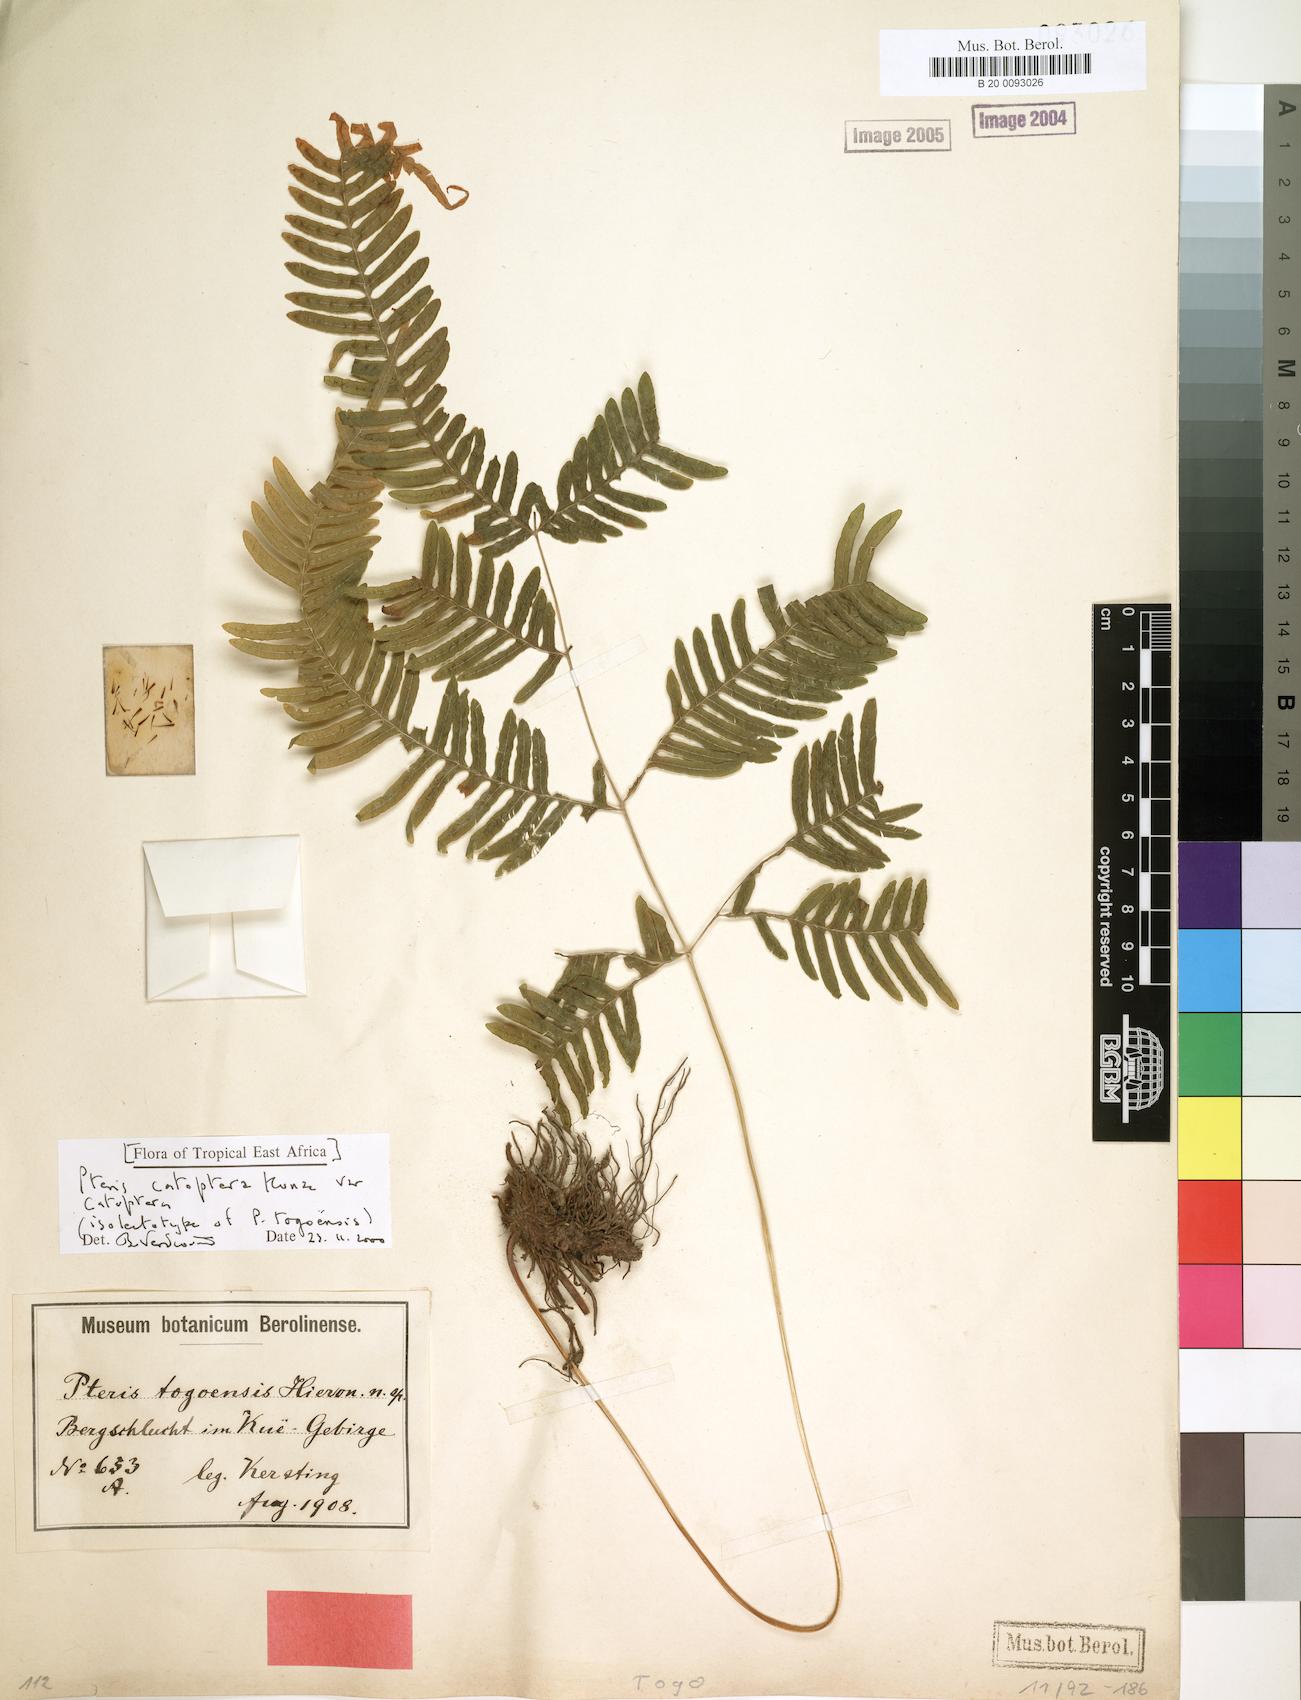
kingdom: Plantae
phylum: Tracheophyta
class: Polypodiopsida
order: Polypodiales
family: Pteridaceae
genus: Pteris
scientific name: Pteris togoensis
